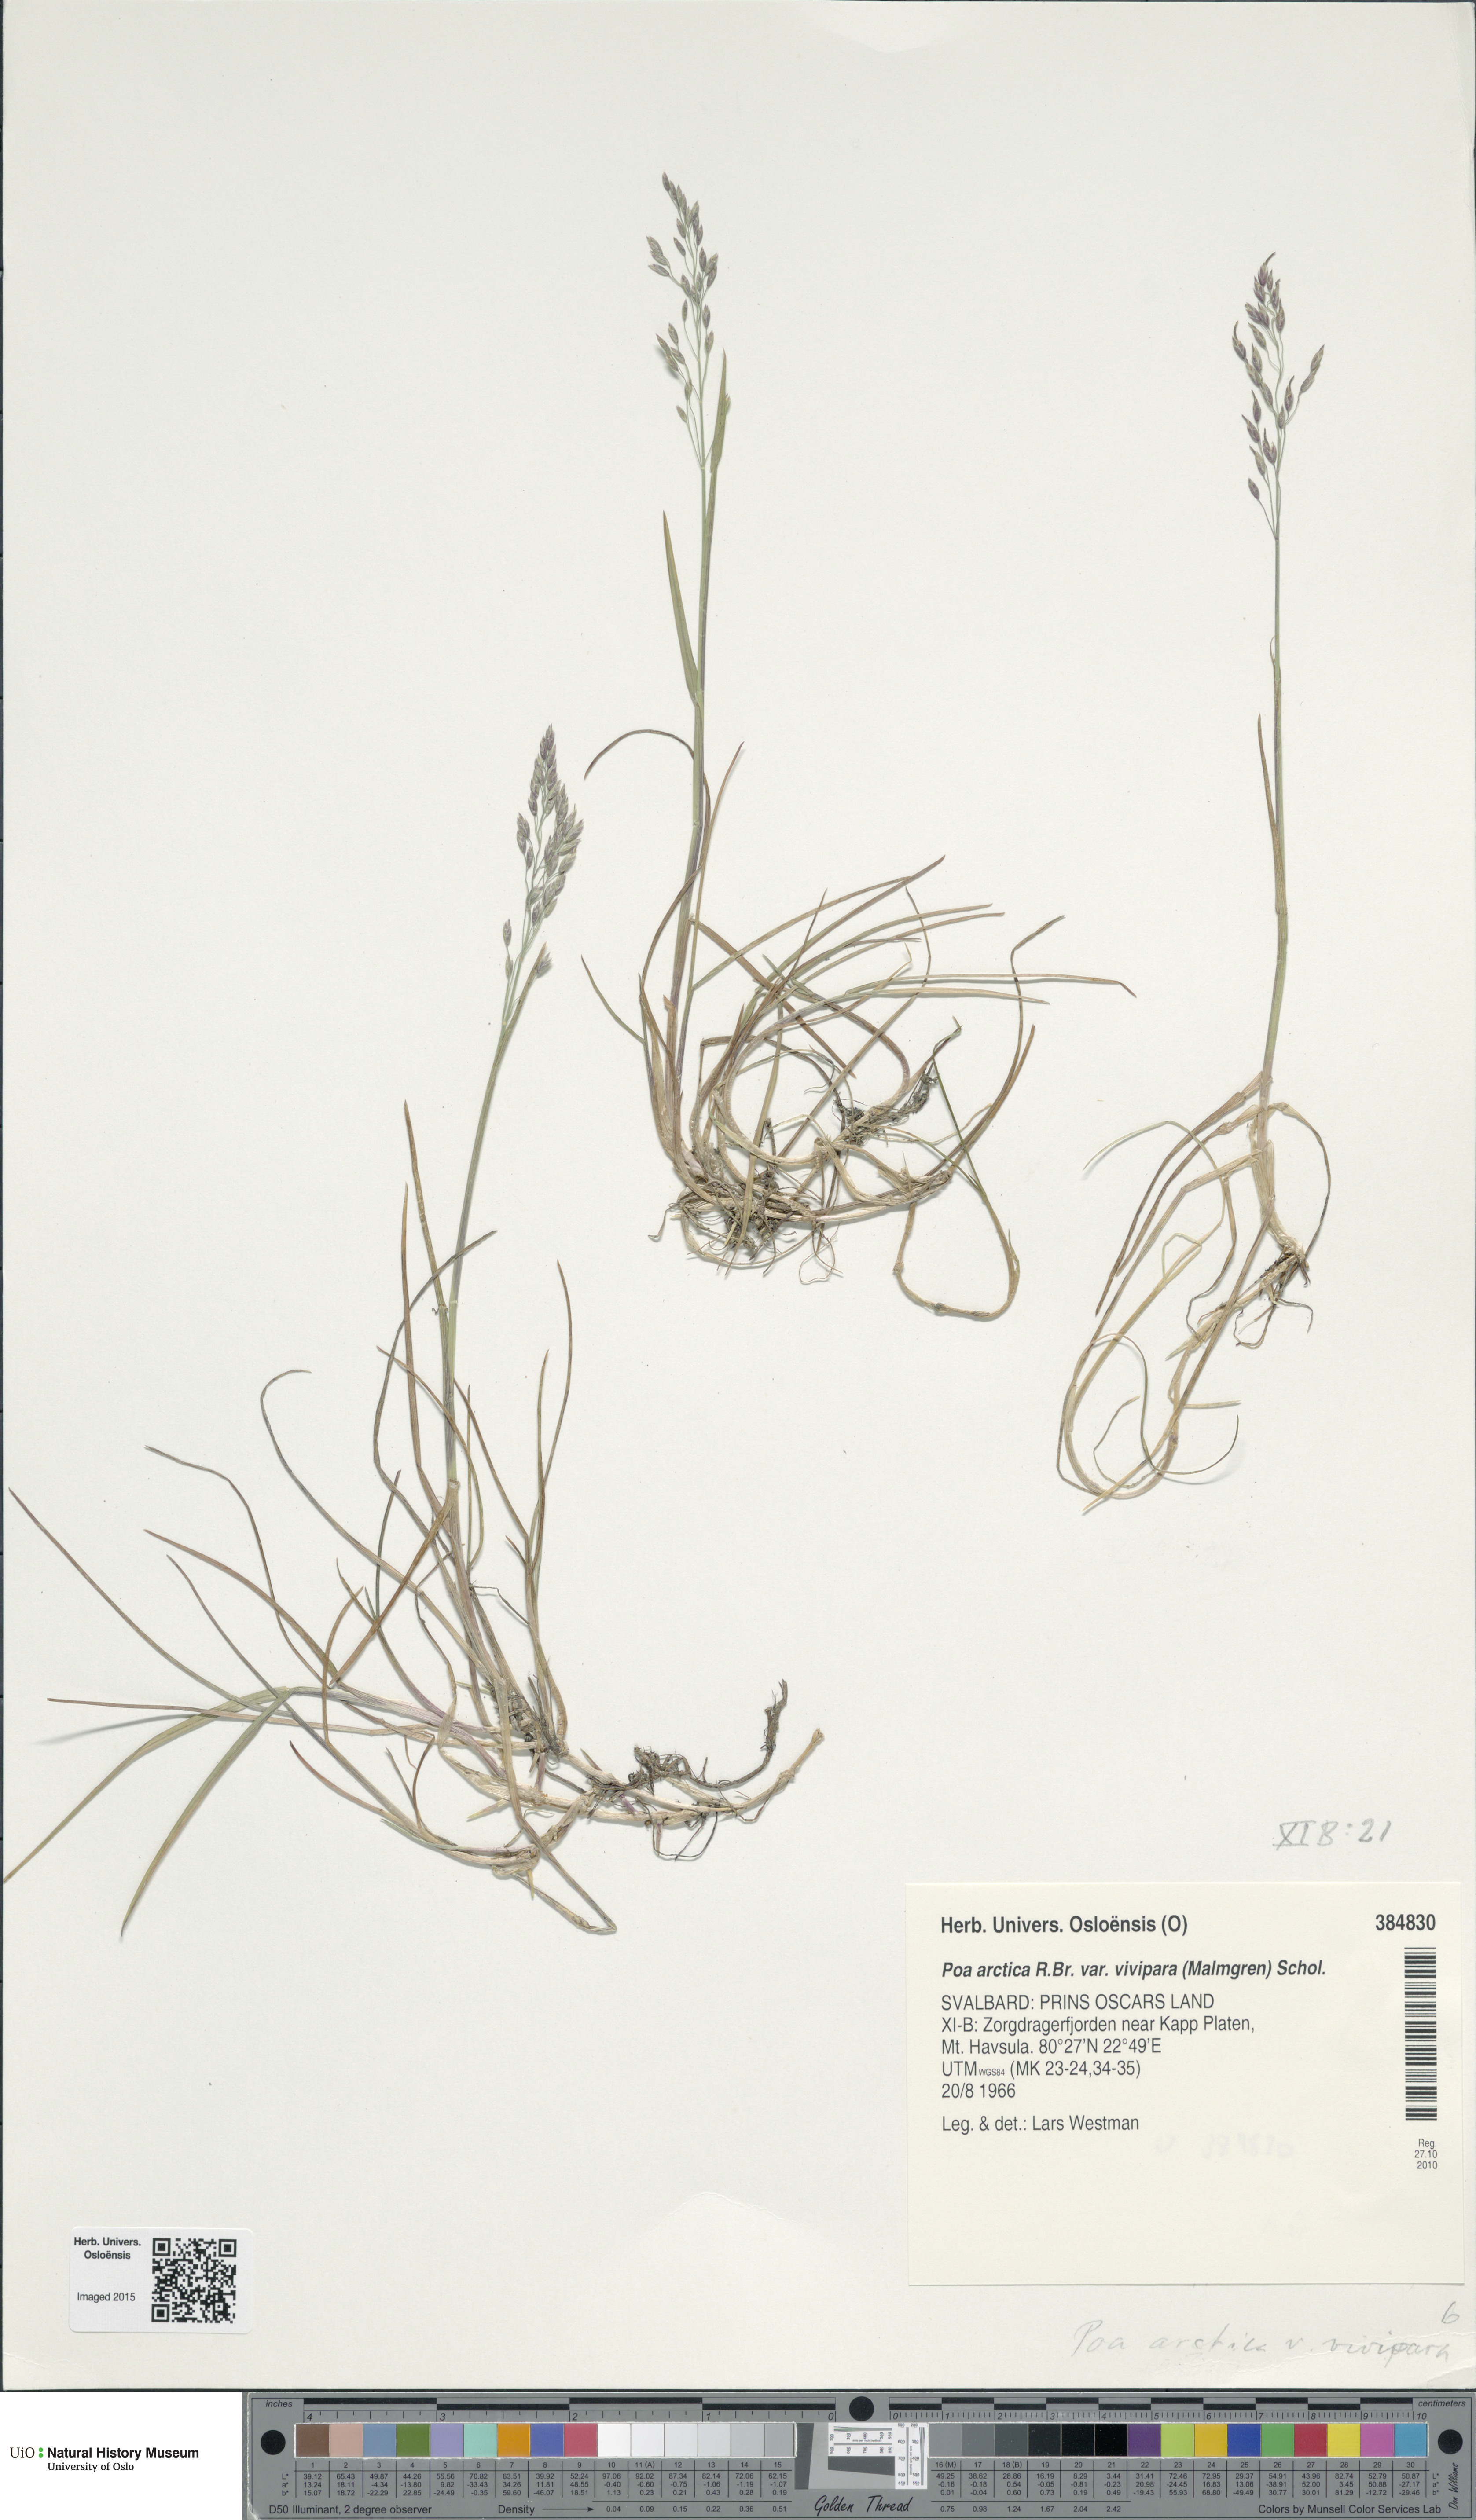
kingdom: Plantae
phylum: Tracheophyta
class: Liliopsida
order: Poales
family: Poaceae
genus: Poa
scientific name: Poa arctica
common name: Arctic bluegrass
